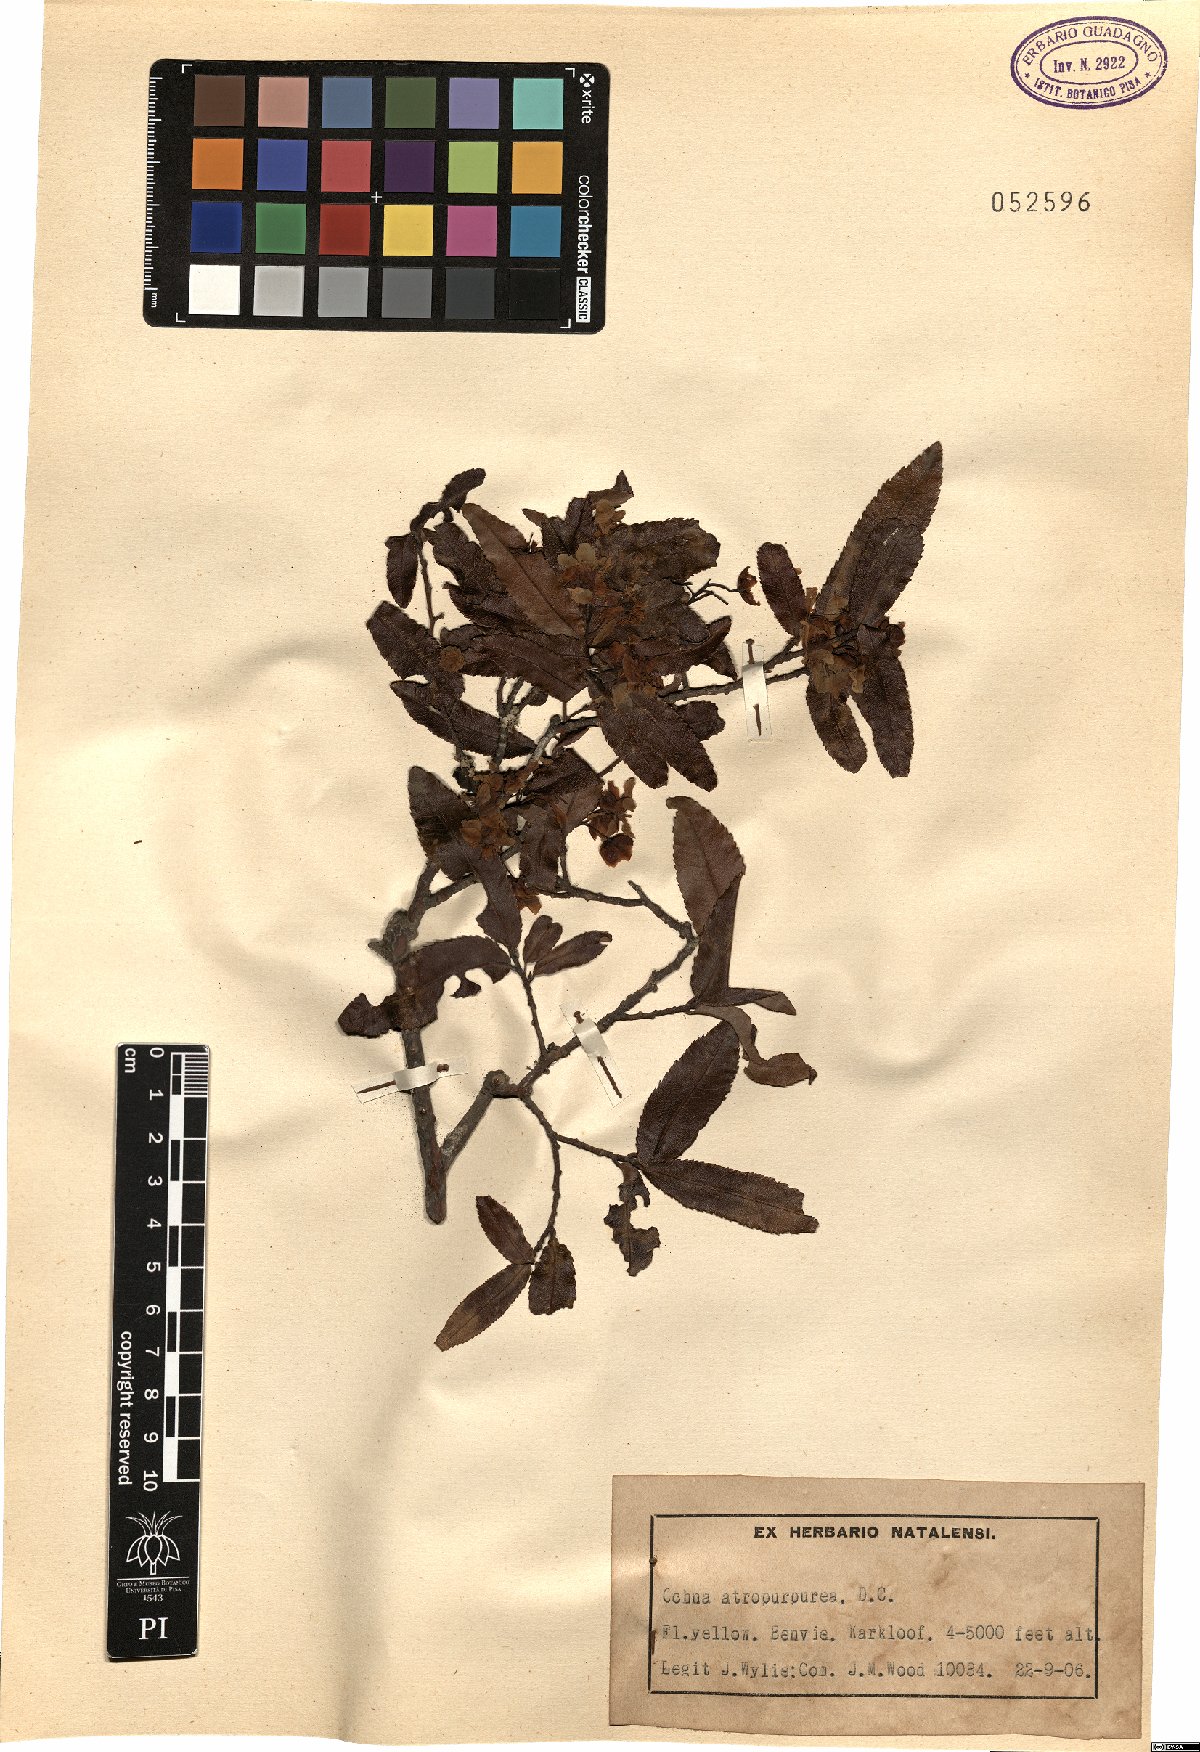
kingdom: Plantae
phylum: Tracheophyta
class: Magnoliopsida
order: Malpighiales
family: Ochnaceae
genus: Ochna
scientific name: Ochna atropurpurea
